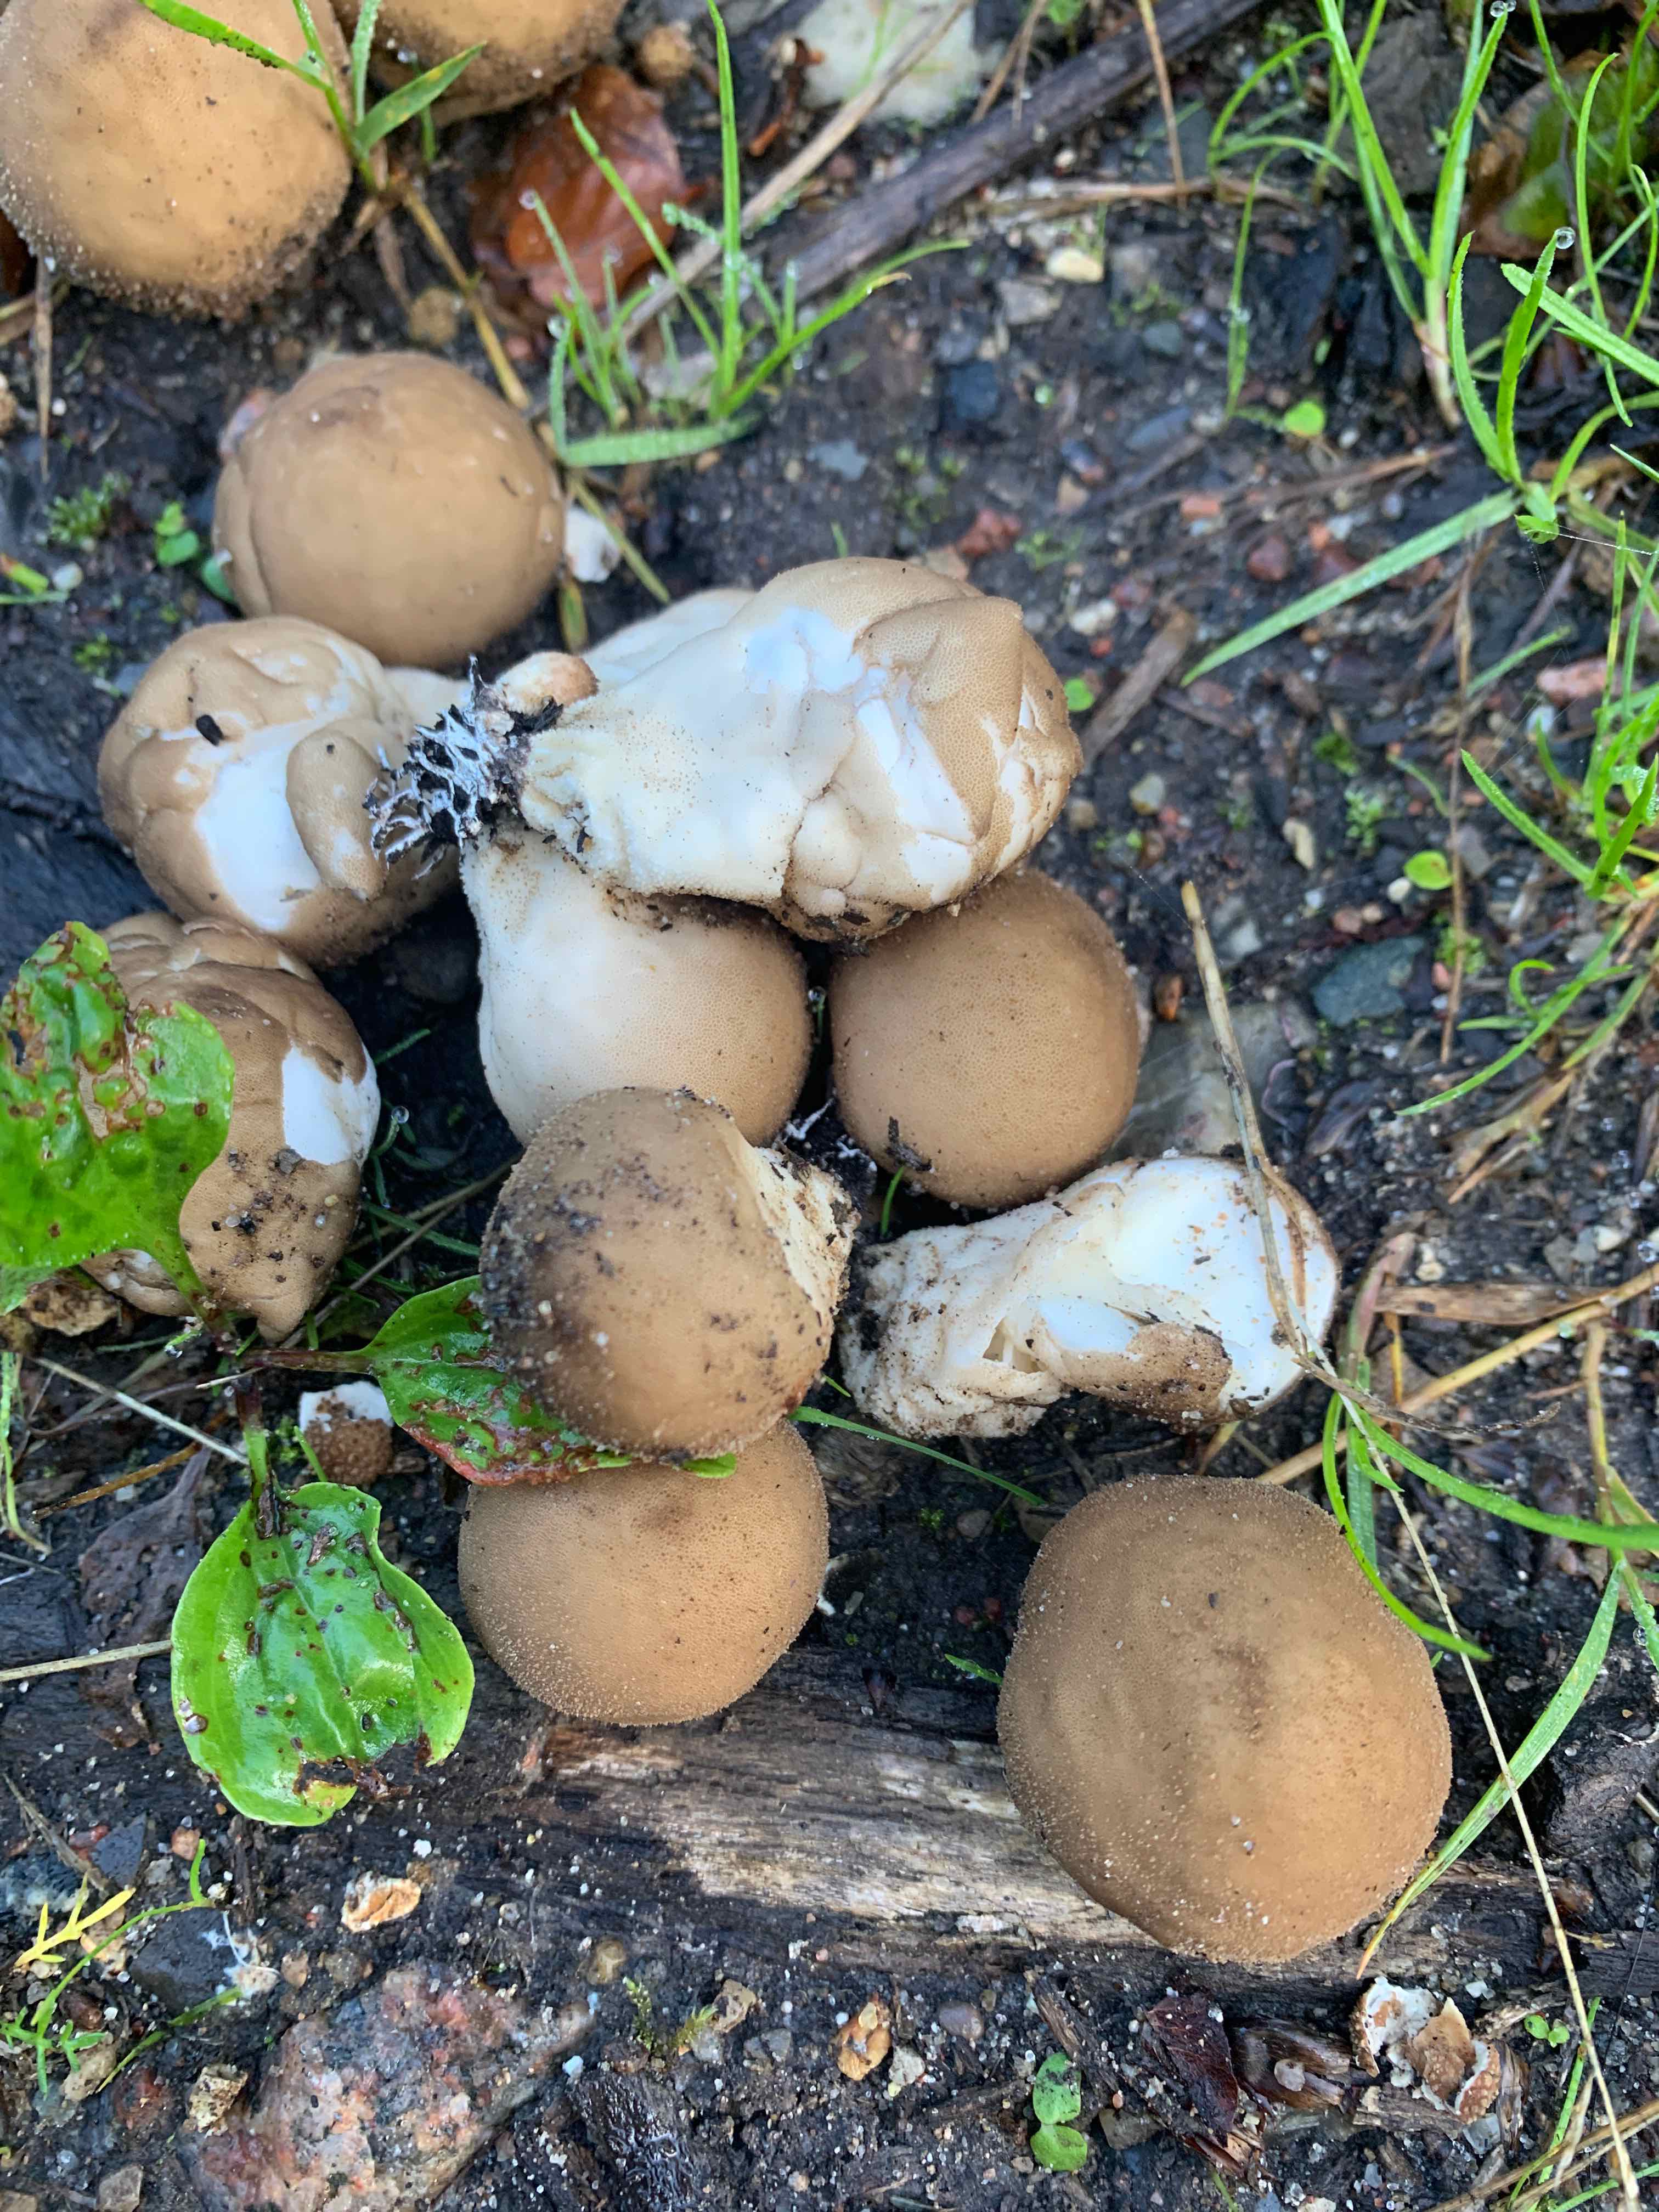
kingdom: Fungi
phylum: Basidiomycota
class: Agaricomycetes
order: Agaricales
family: Lycoperdaceae
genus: Apioperdon
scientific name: Apioperdon pyriforme
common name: pære-støvbold
